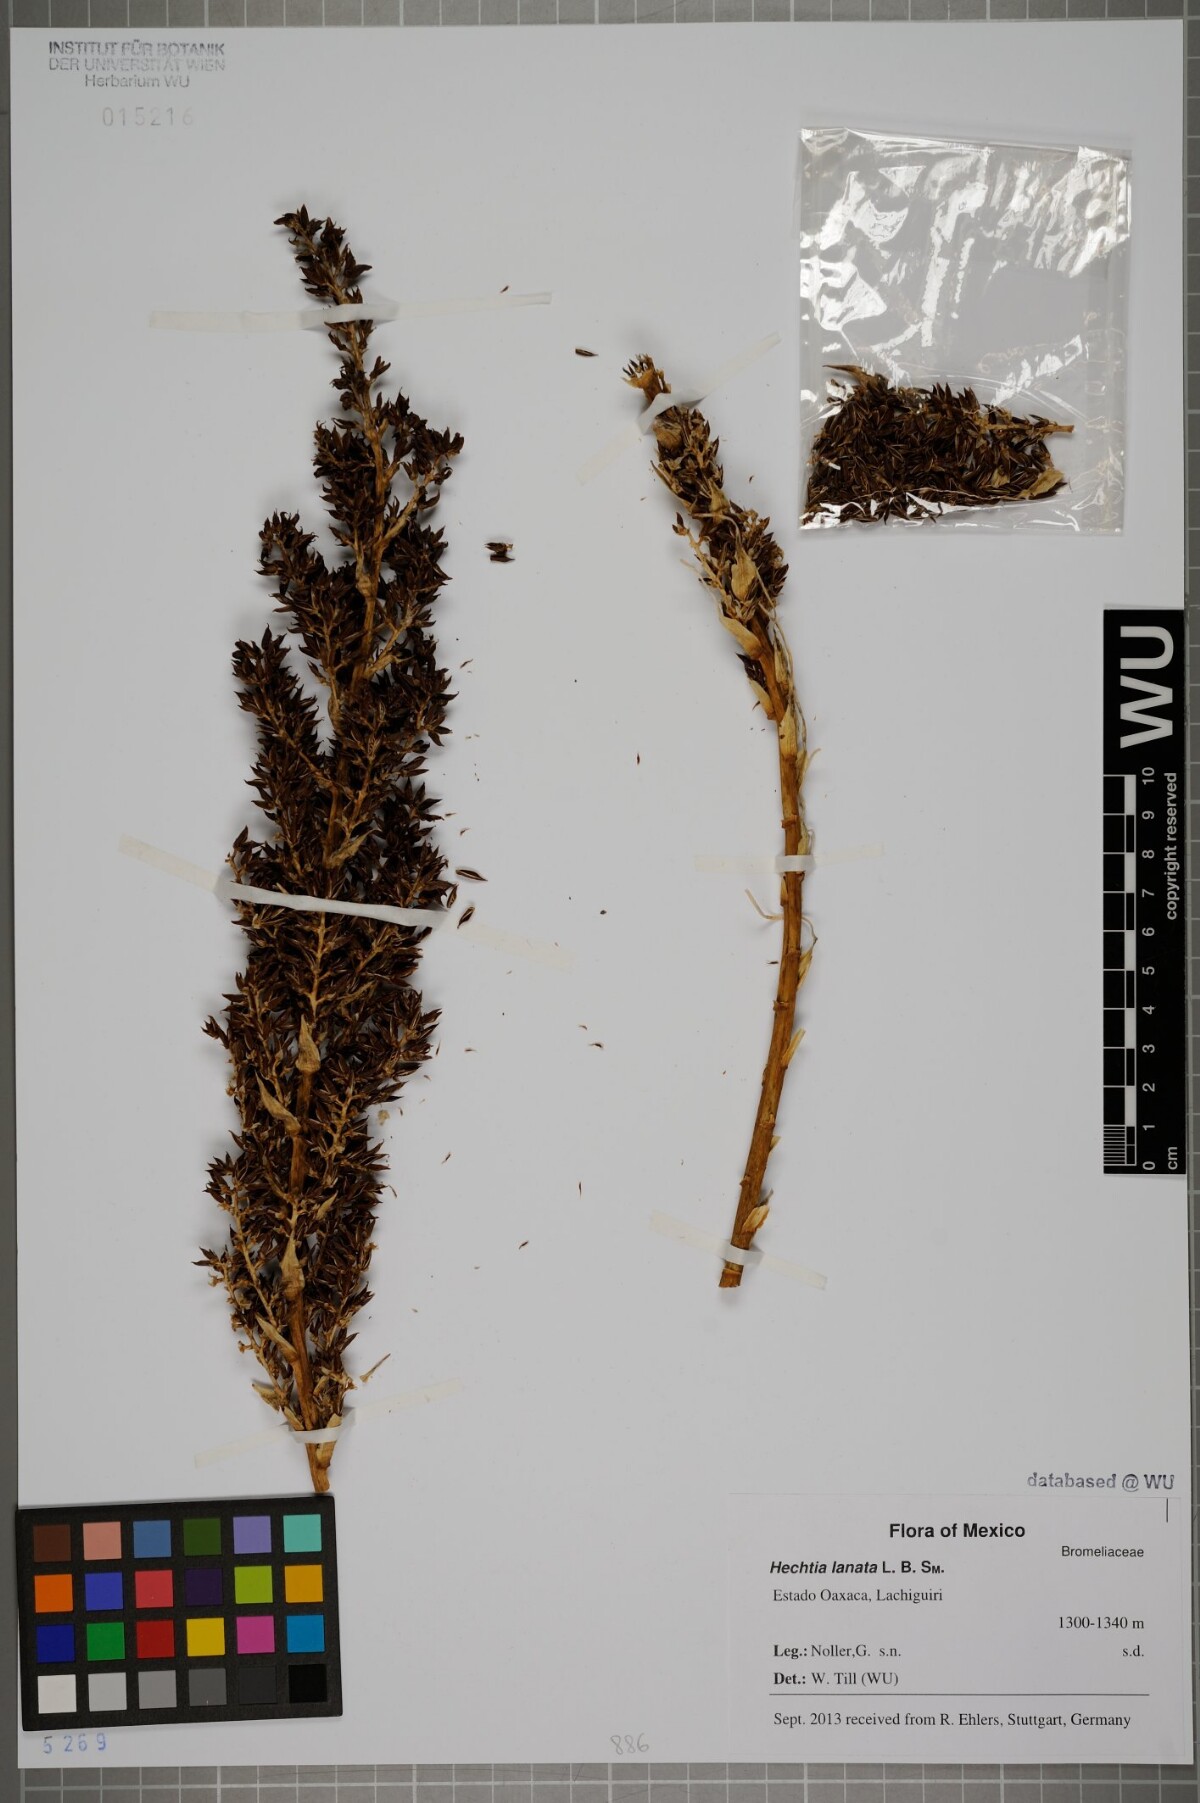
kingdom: Plantae
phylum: Tracheophyta
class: Liliopsida
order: Poales
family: Bromeliaceae
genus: Hechtia
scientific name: Hechtia lanata
